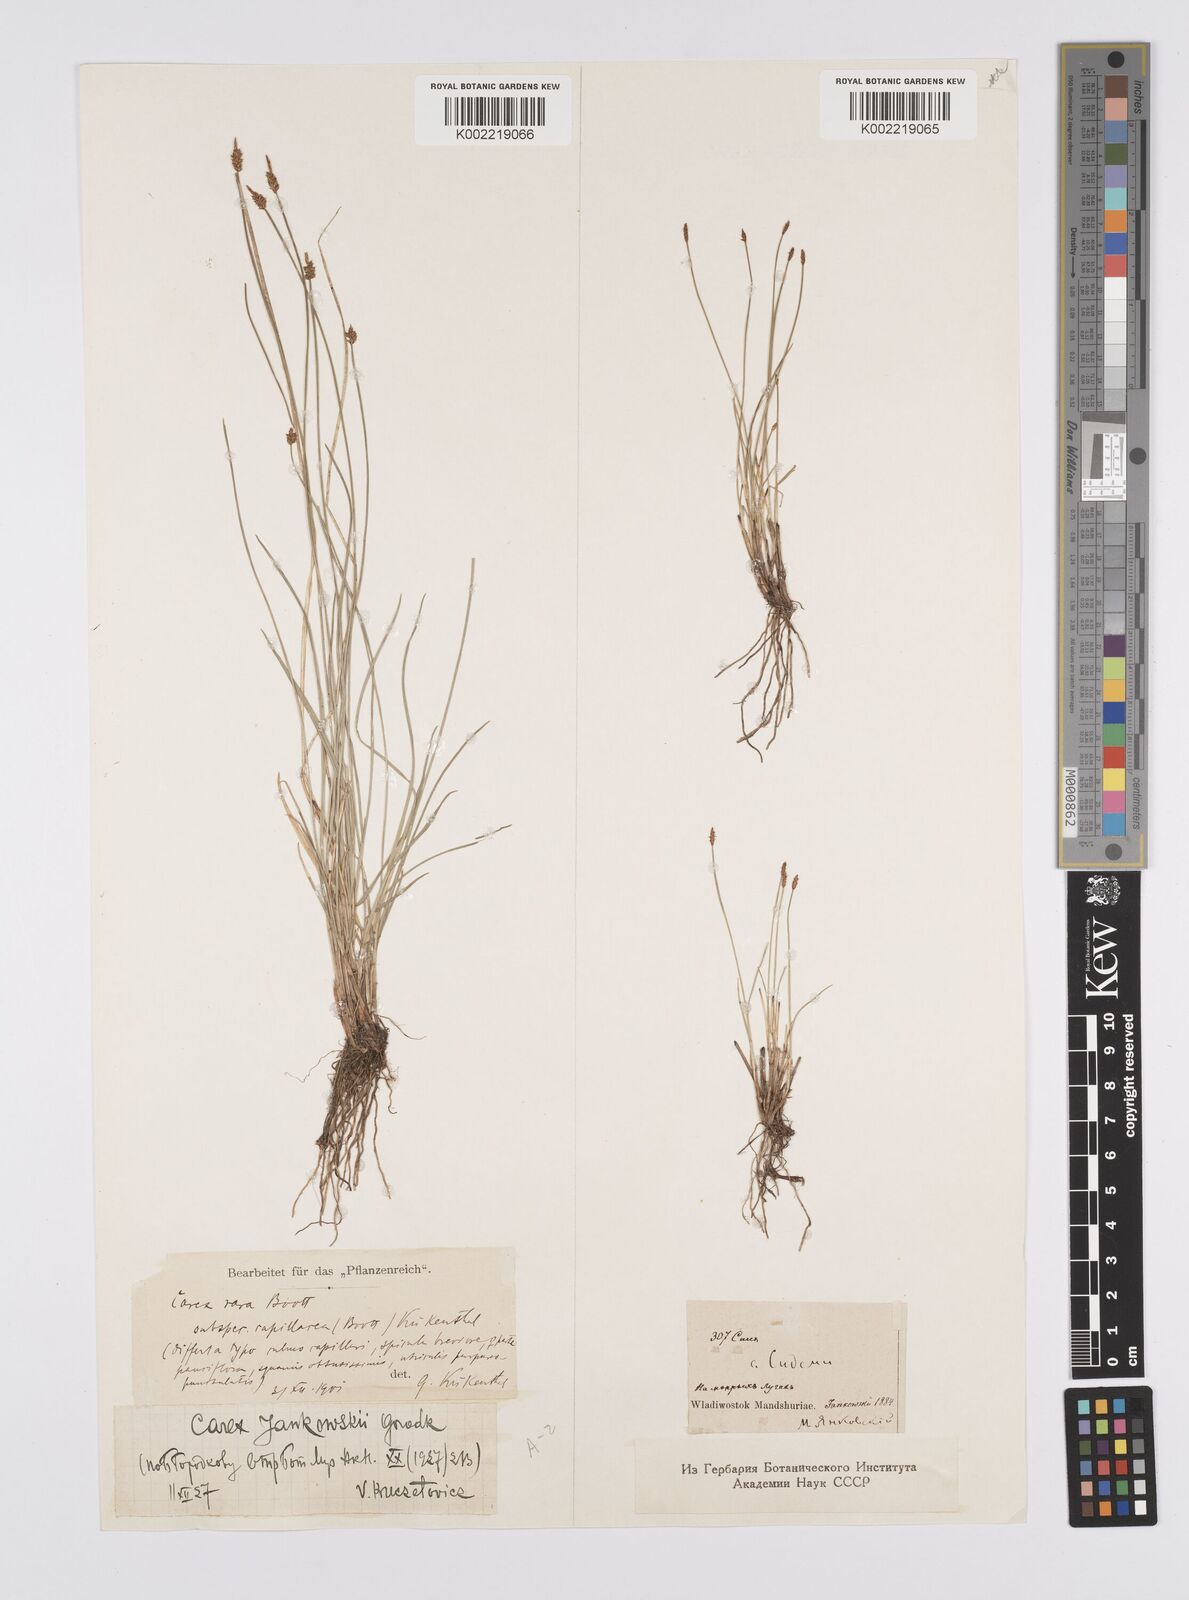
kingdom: Plantae
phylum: Tracheophyta
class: Liliopsida
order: Poales
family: Cyperaceae
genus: Carex
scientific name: Carex jankowskii
